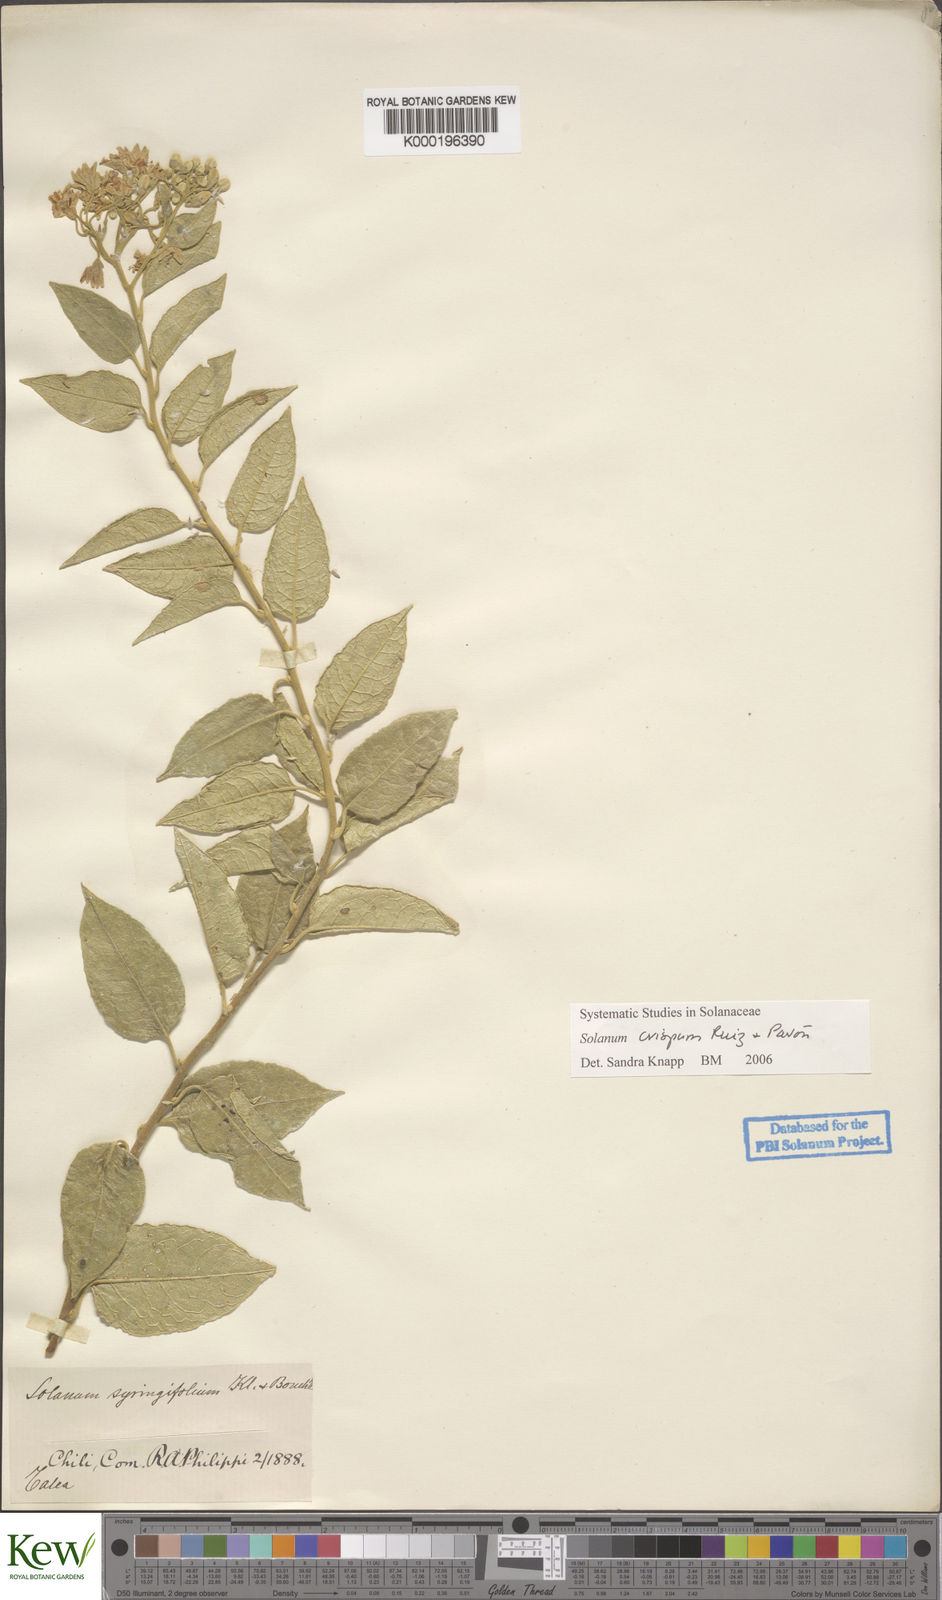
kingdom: Plantae
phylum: Tracheophyta
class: Magnoliopsida
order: Solanales
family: Solanaceae
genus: Solanum
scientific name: Solanum crispum
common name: Chilean nightshade
